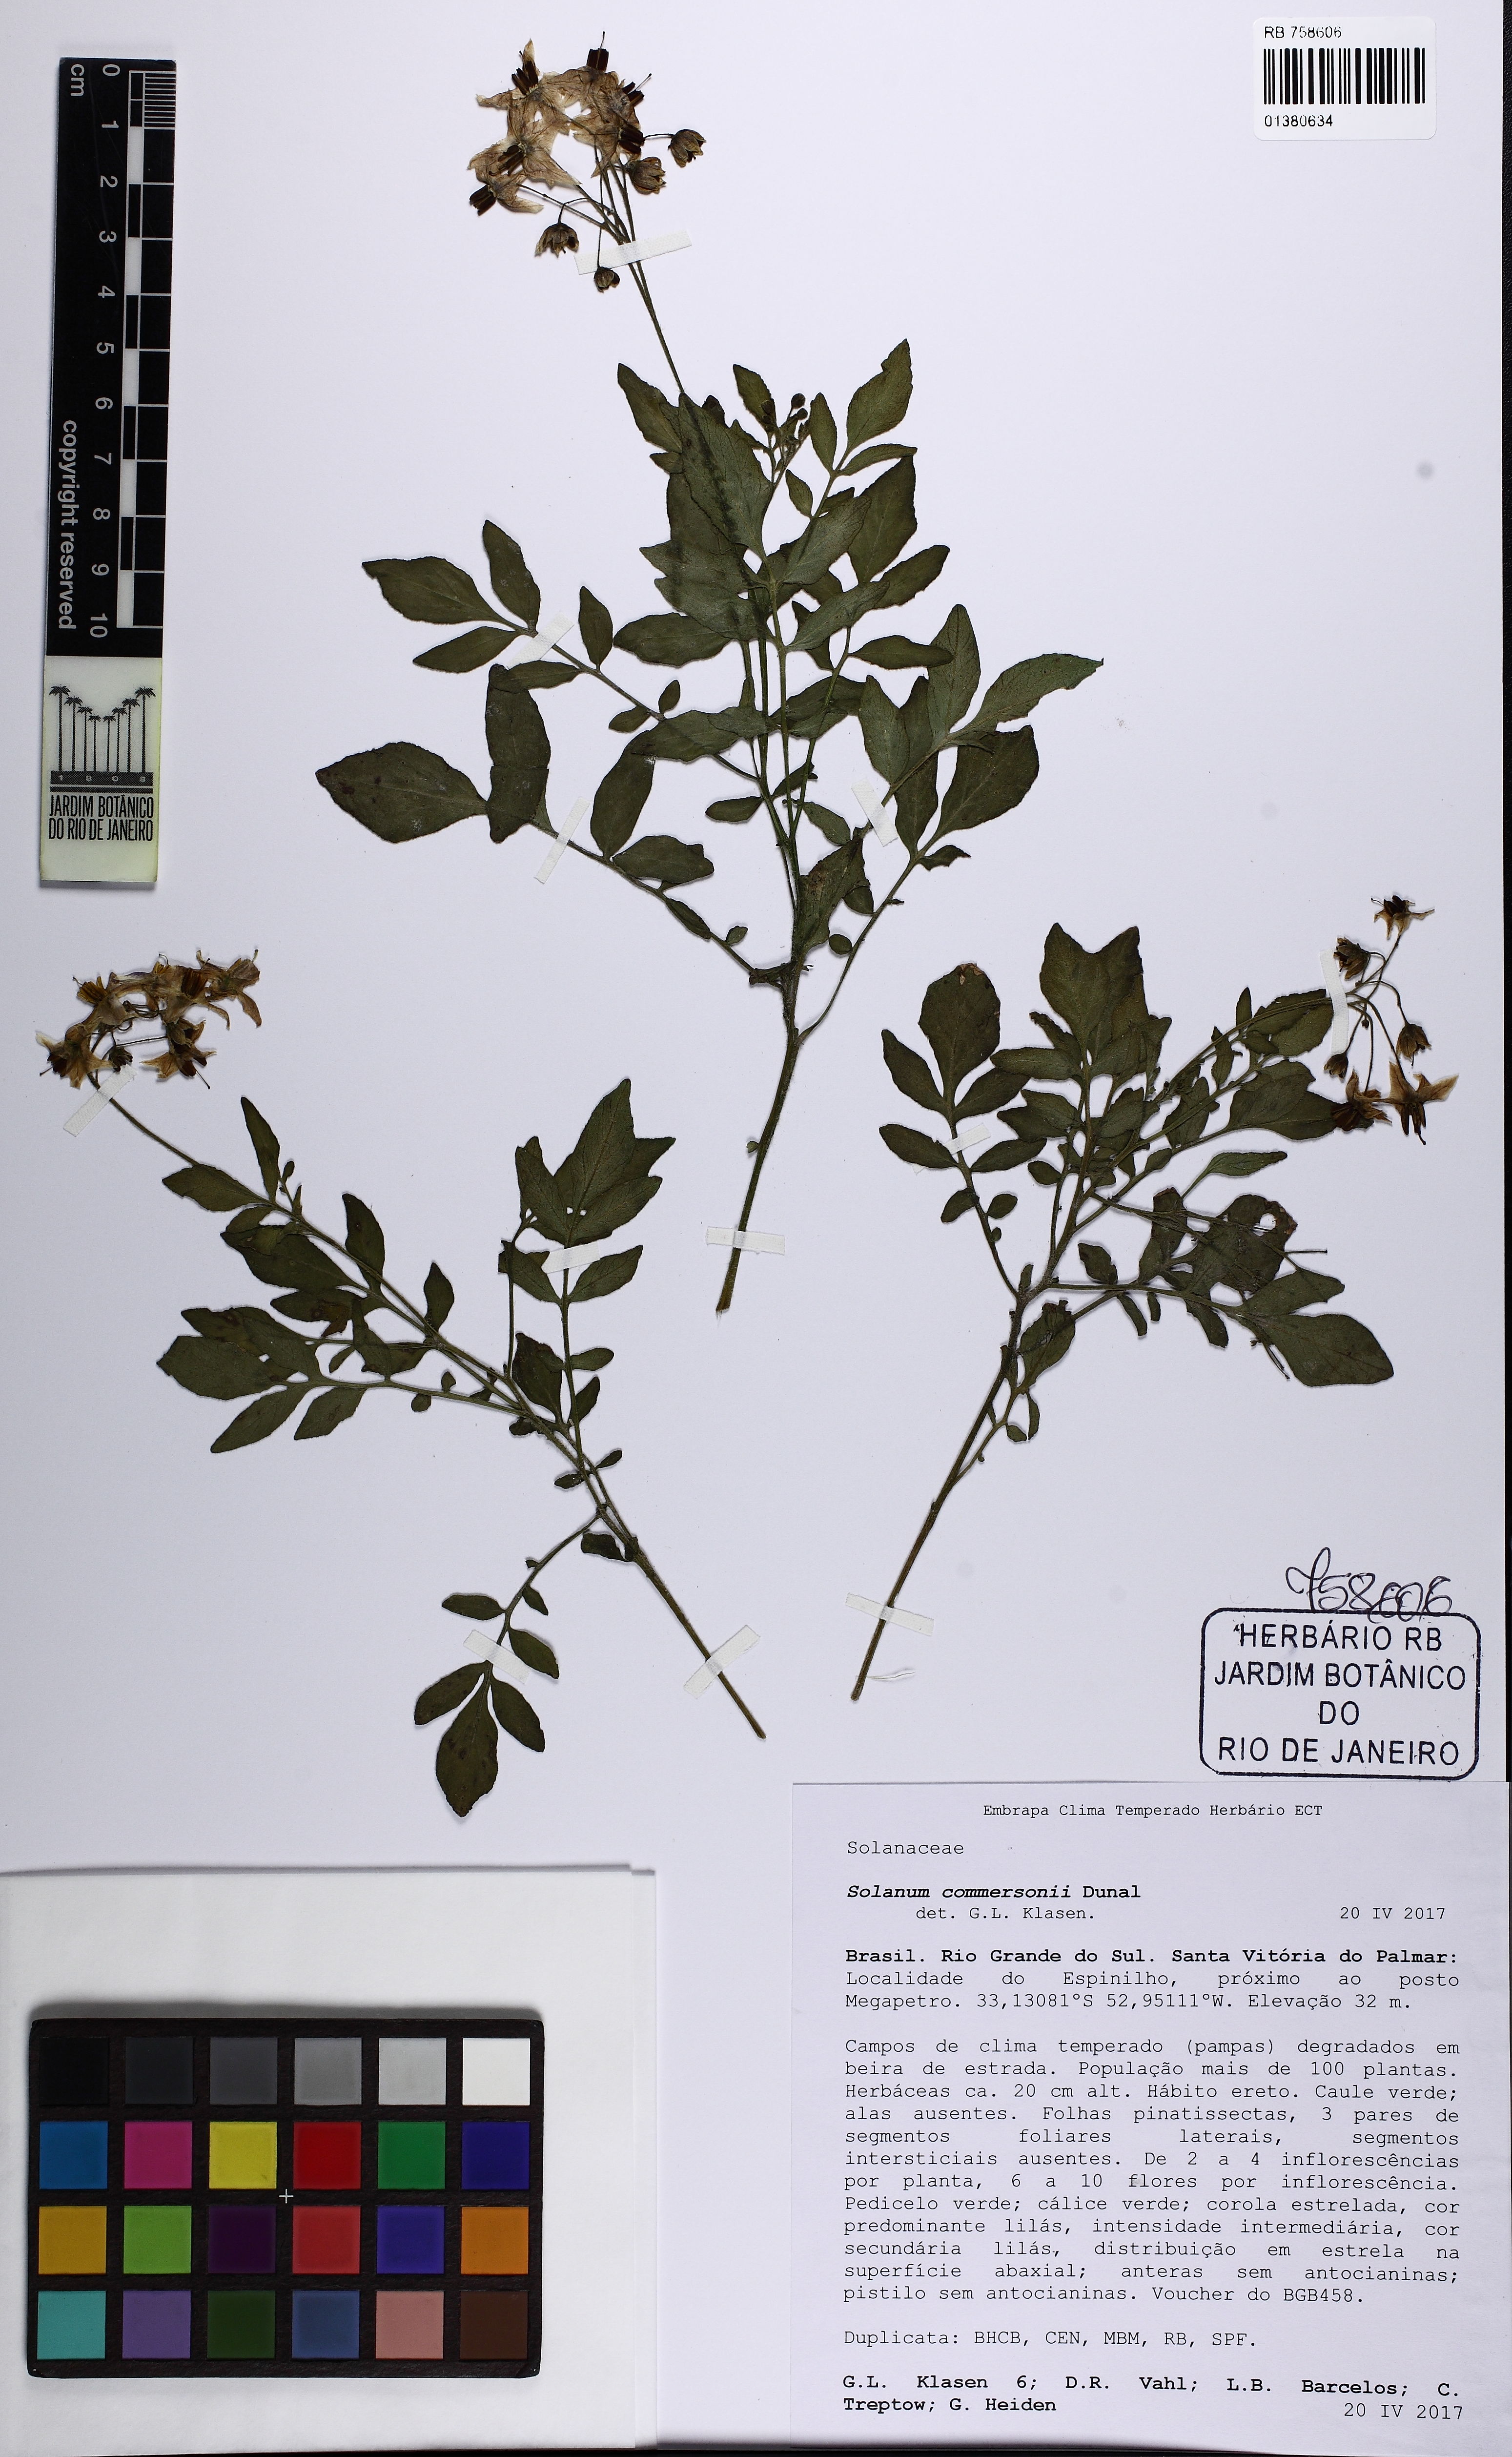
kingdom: Plantae
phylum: Tracheophyta
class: Magnoliopsida
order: Solanales
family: Solanaceae
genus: Solanum
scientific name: Solanum commersonii
